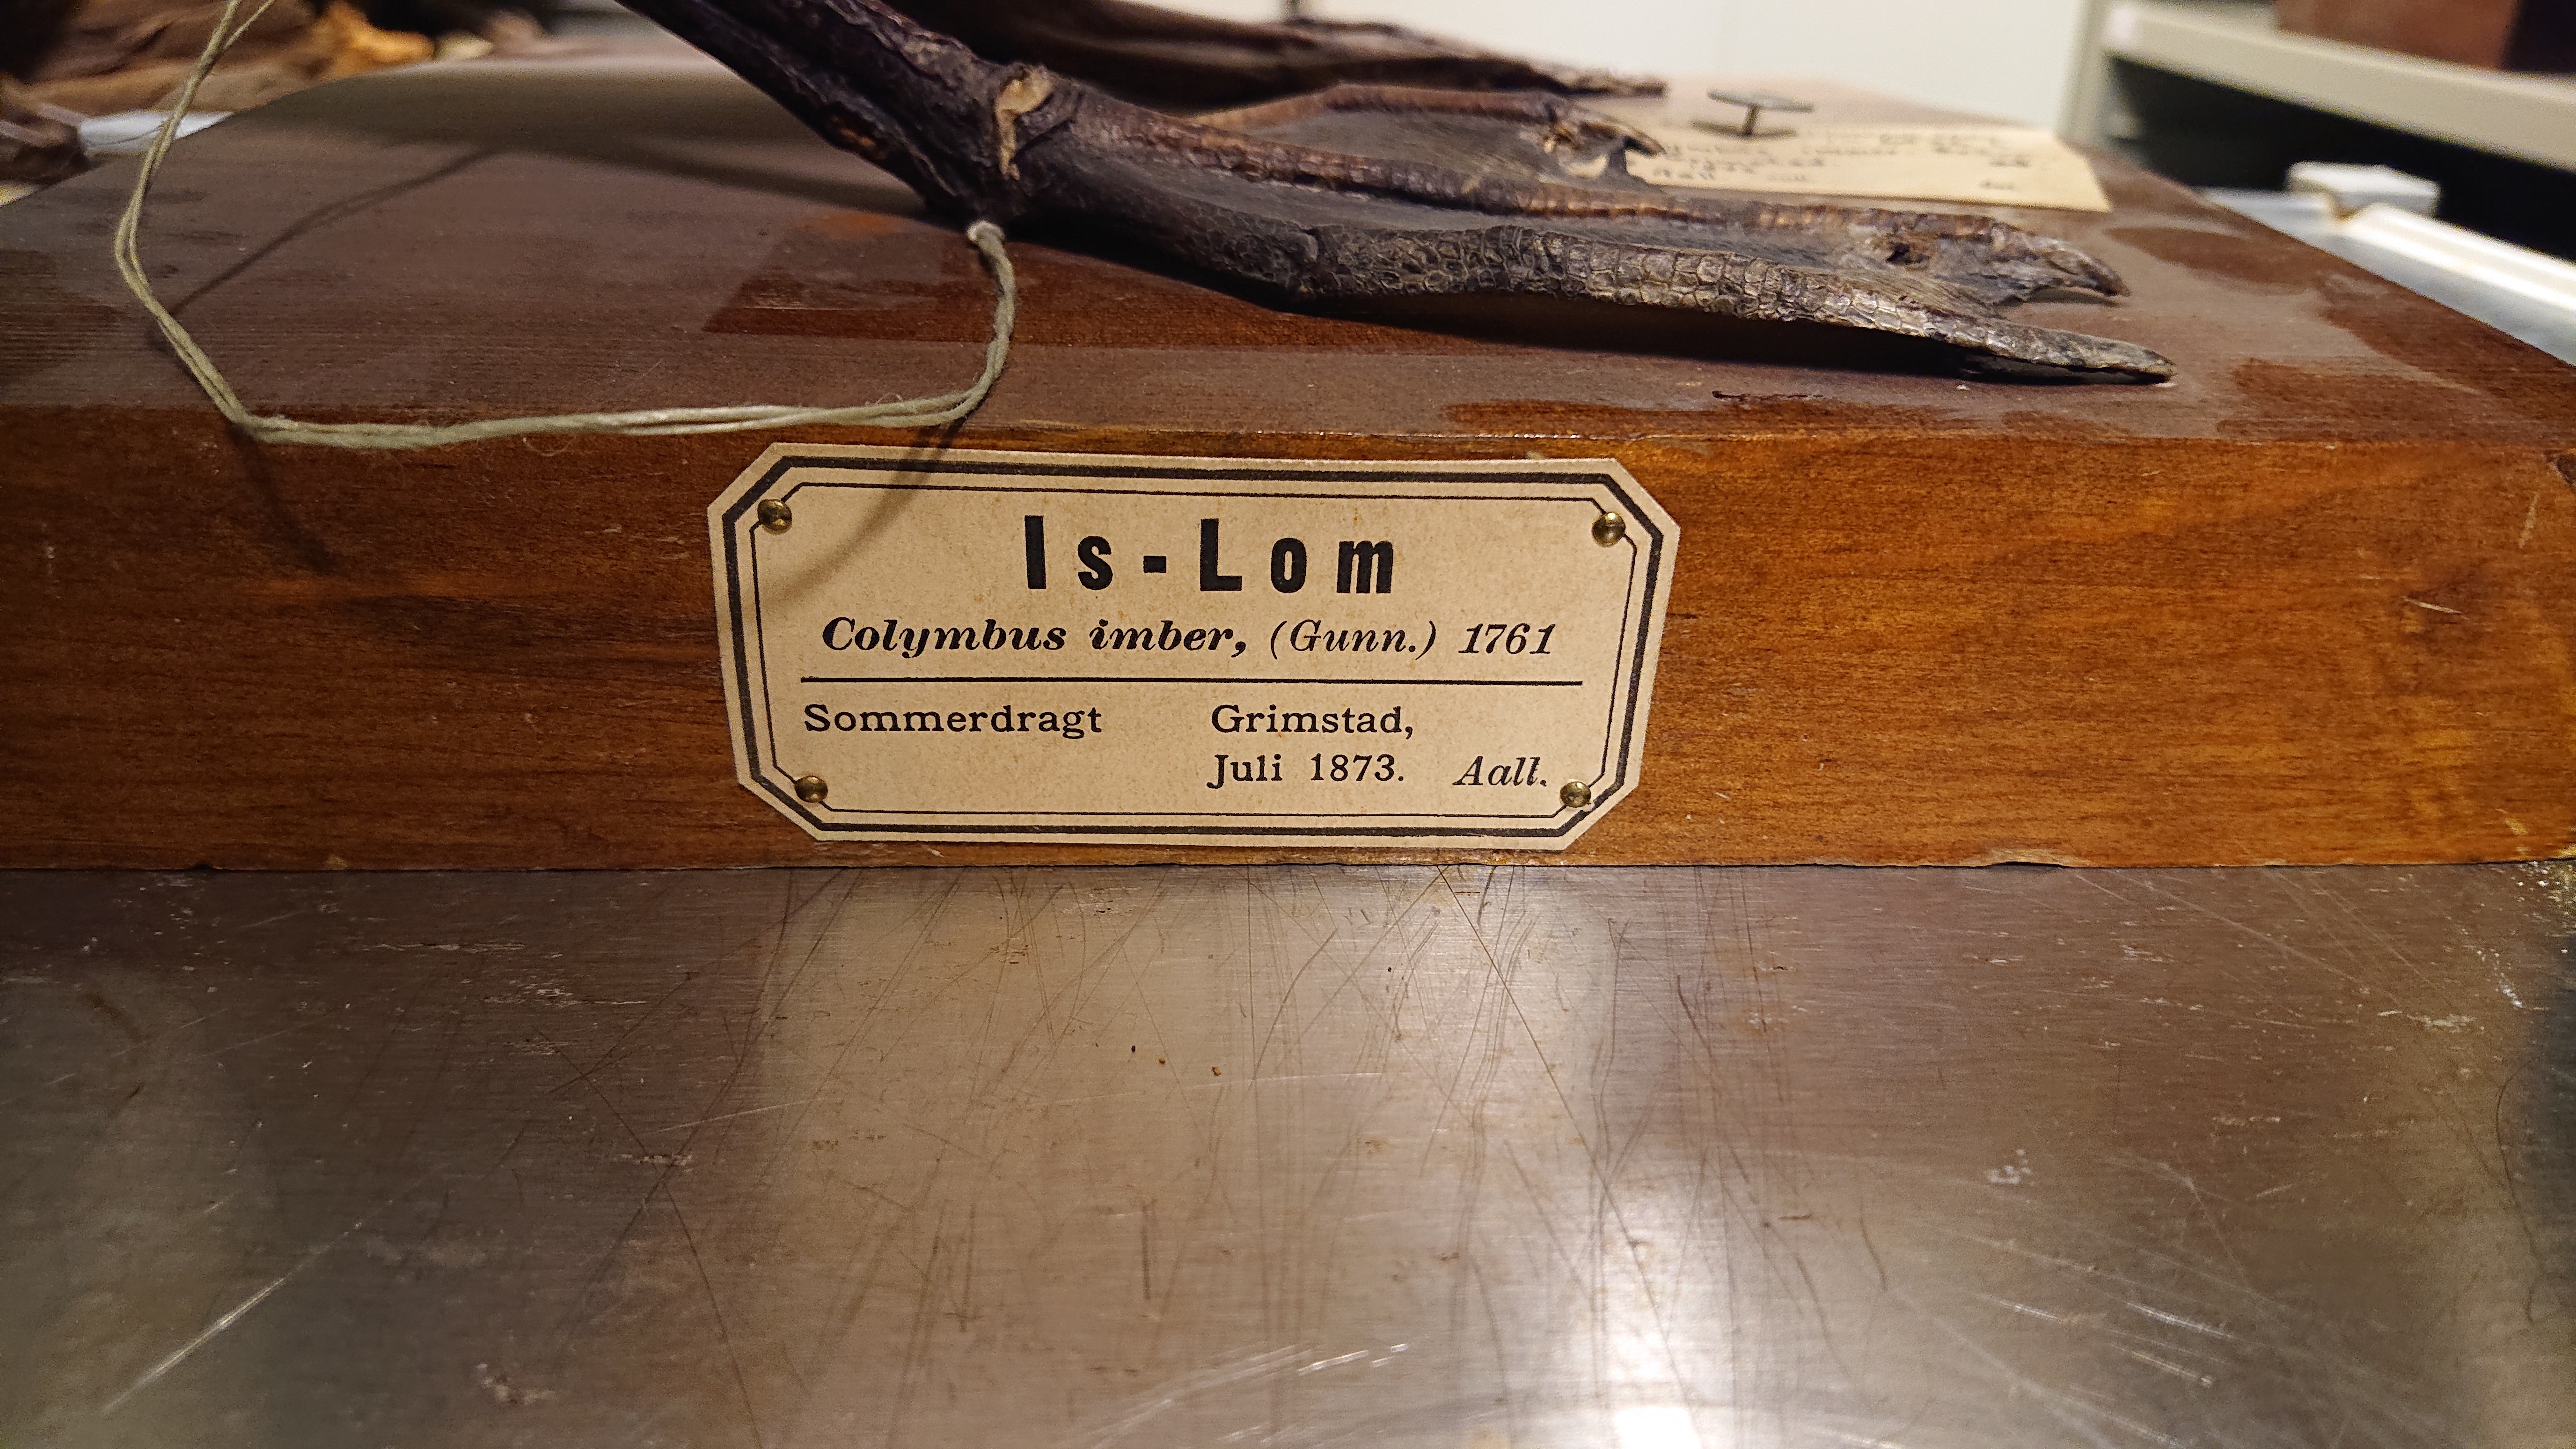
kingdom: Animalia
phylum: Chordata
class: Aves
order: Gaviiformes
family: Gaviidae
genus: Gavia
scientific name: Gavia immer
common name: Common loon
